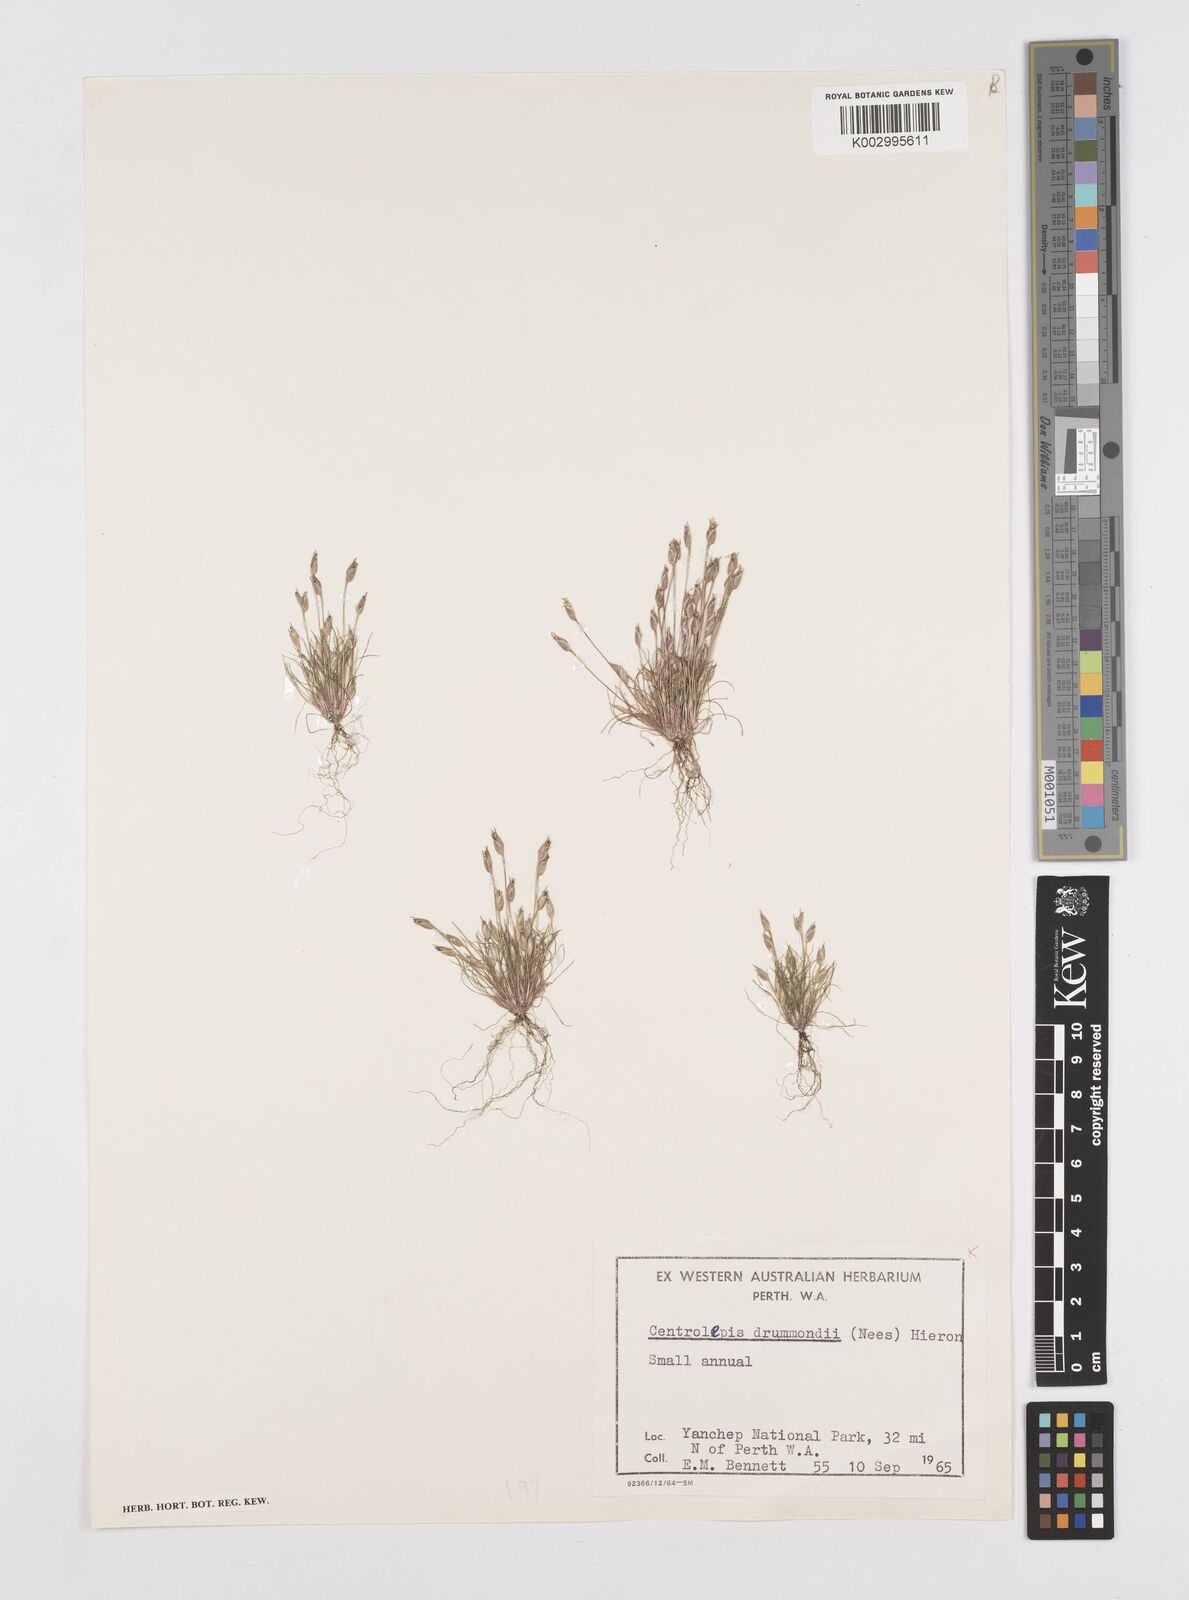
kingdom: Plantae
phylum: Tracheophyta
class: Liliopsida
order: Poales
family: Restionaceae
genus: Centrolepis
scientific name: Centrolepis drummondiana
